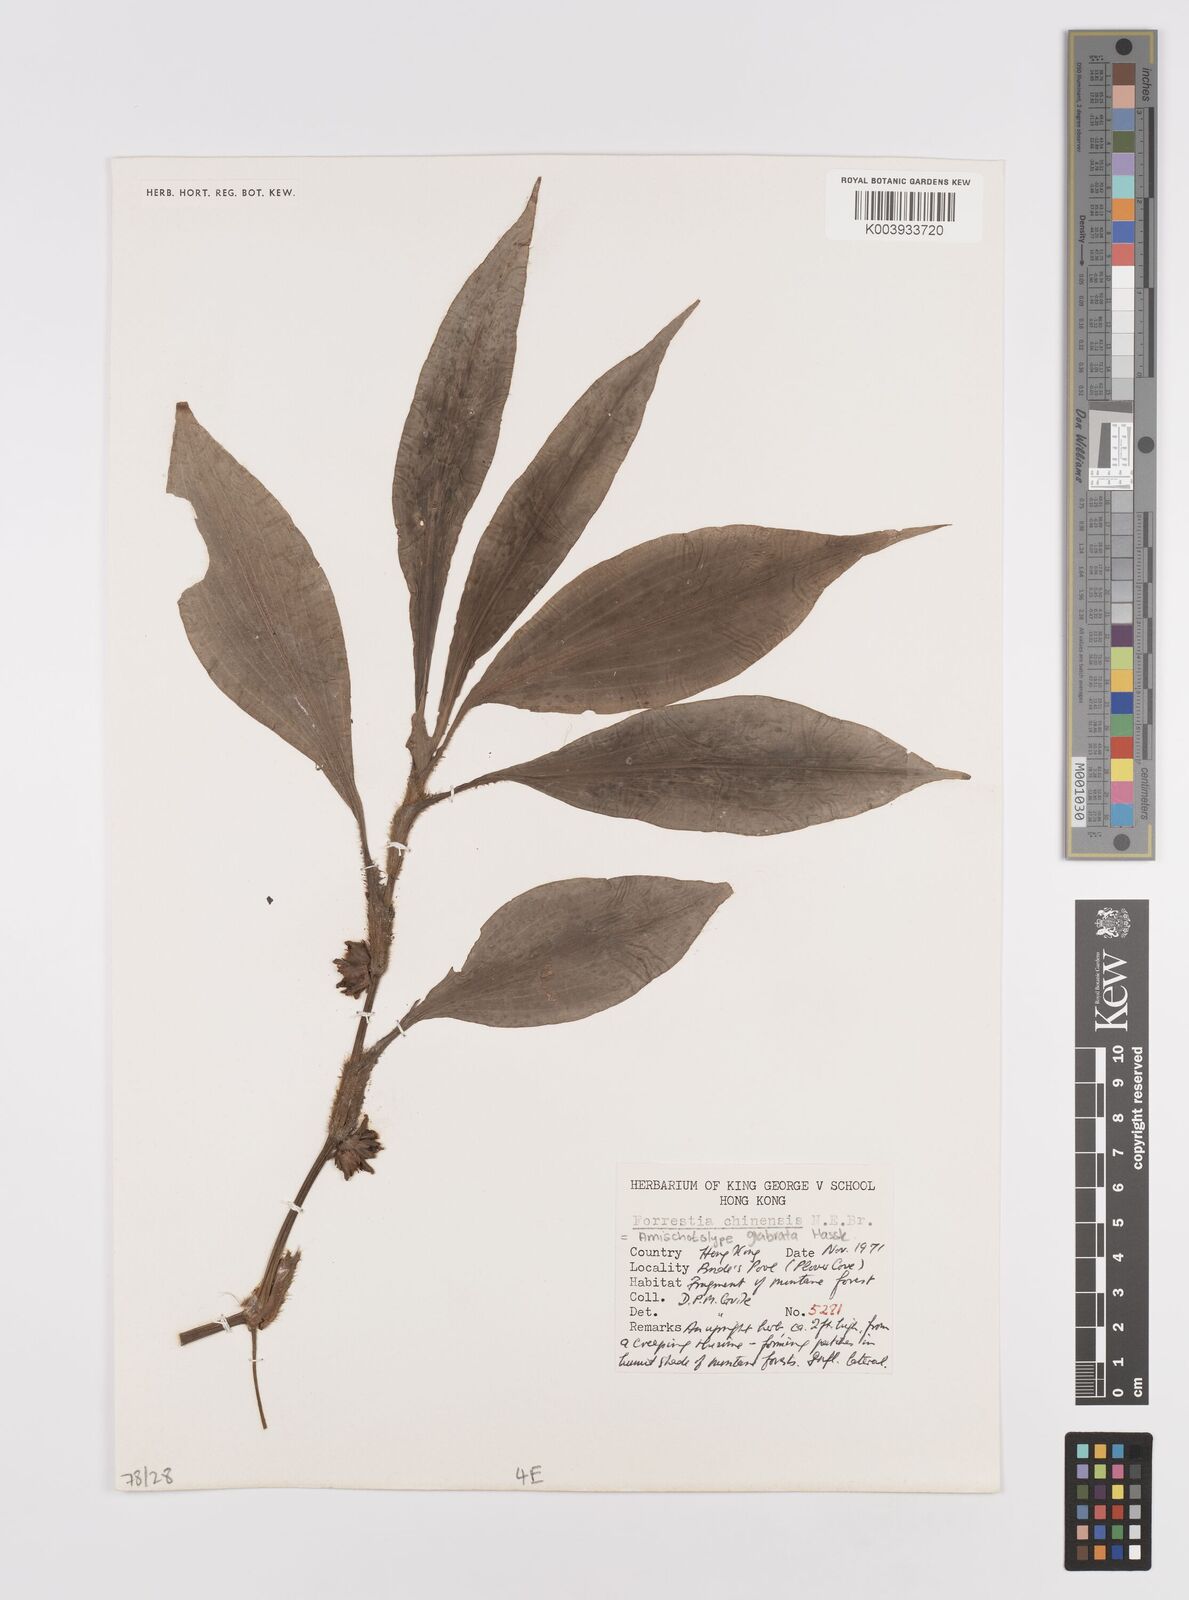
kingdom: Plantae
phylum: Tracheophyta
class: Liliopsida
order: Commelinales
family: Commelinaceae
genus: Amischotolype
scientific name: Amischotolype glabrata
